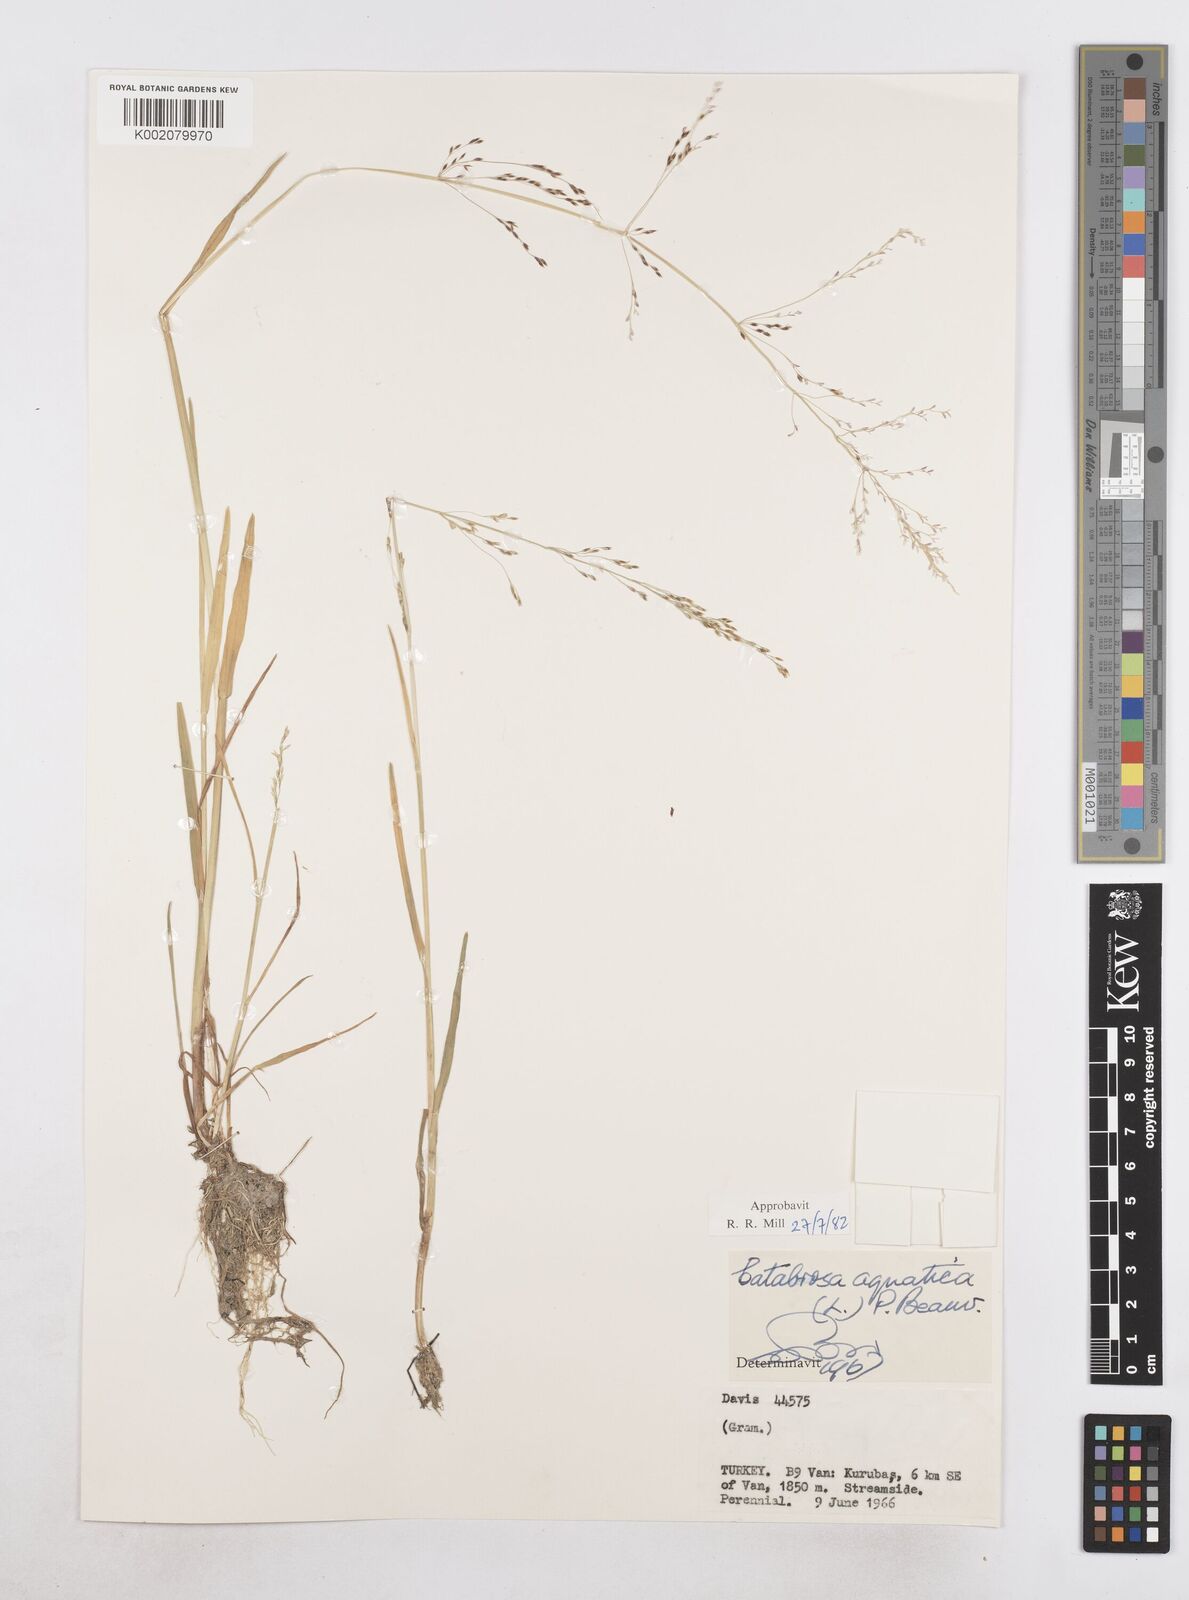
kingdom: Plantae
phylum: Tracheophyta
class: Liliopsida
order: Poales
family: Poaceae
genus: Catabrosa
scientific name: Catabrosa aquatica
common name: Whorl-grass
